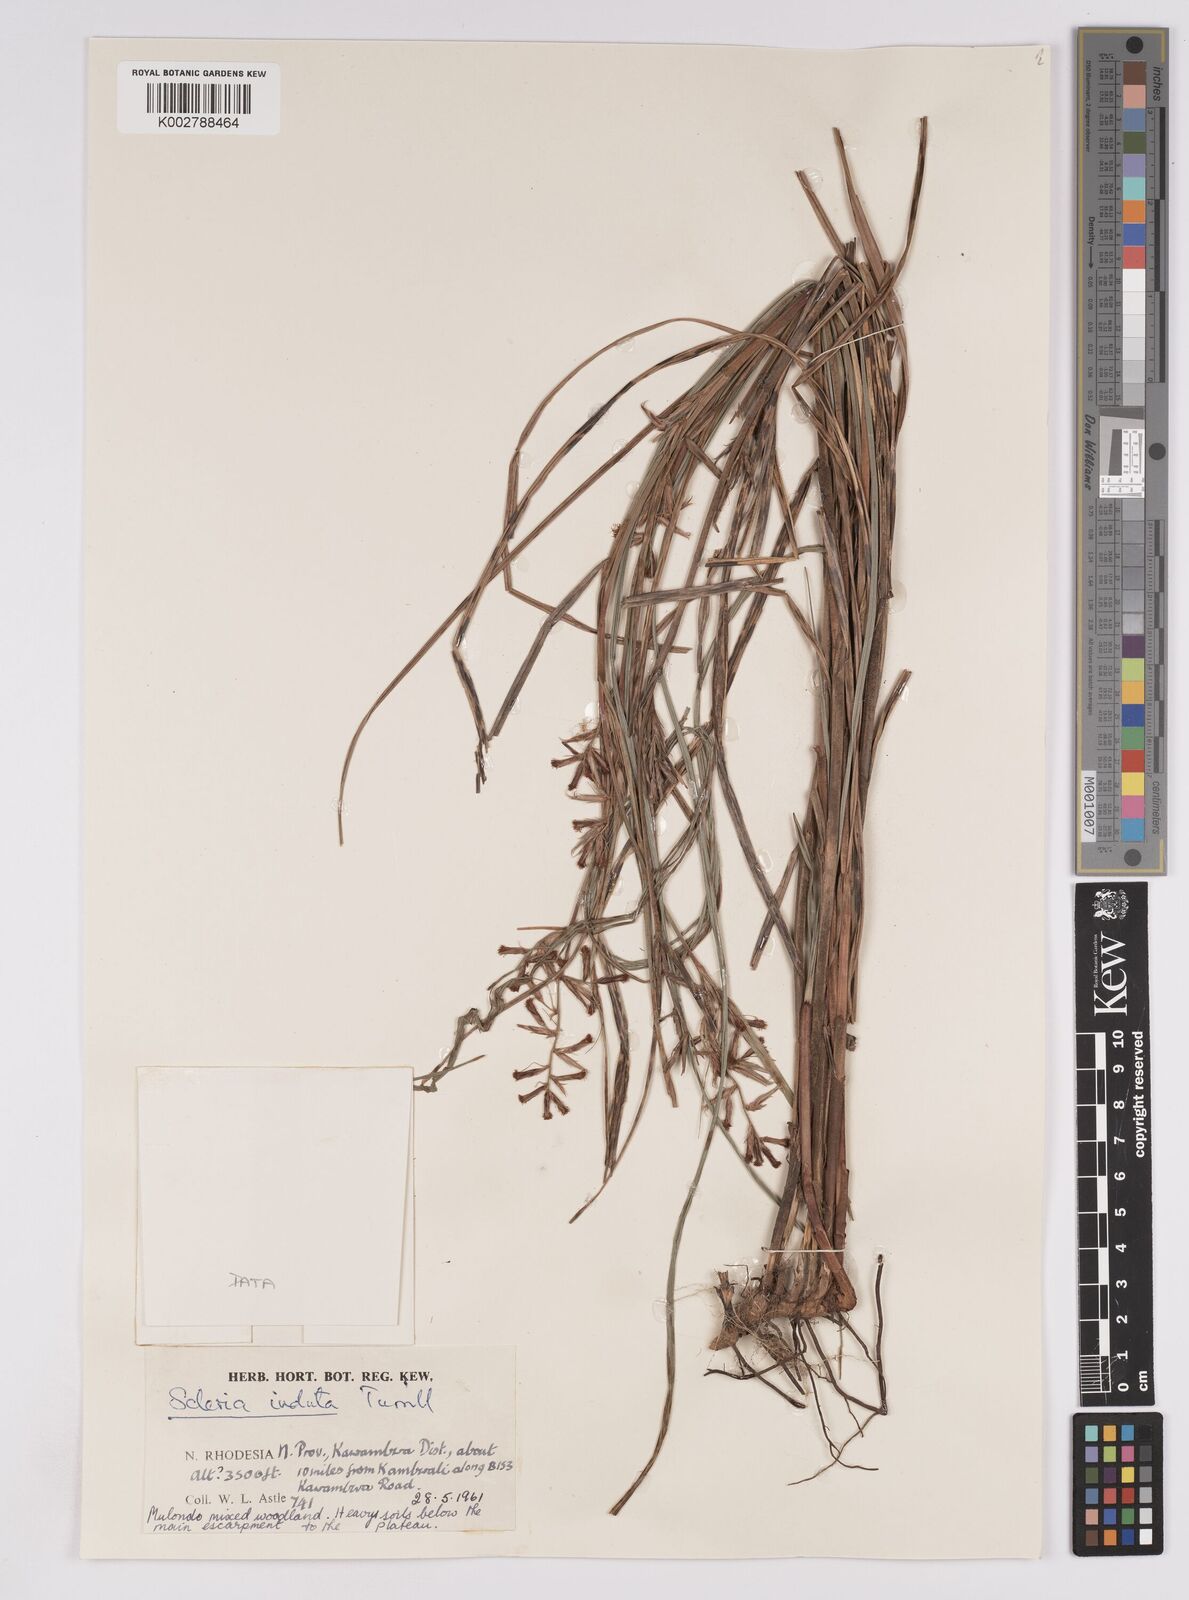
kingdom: Plantae
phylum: Tracheophyta
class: Liliopsida
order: Poales
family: Cyperaceae
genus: Scleria
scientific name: Scleria induta
